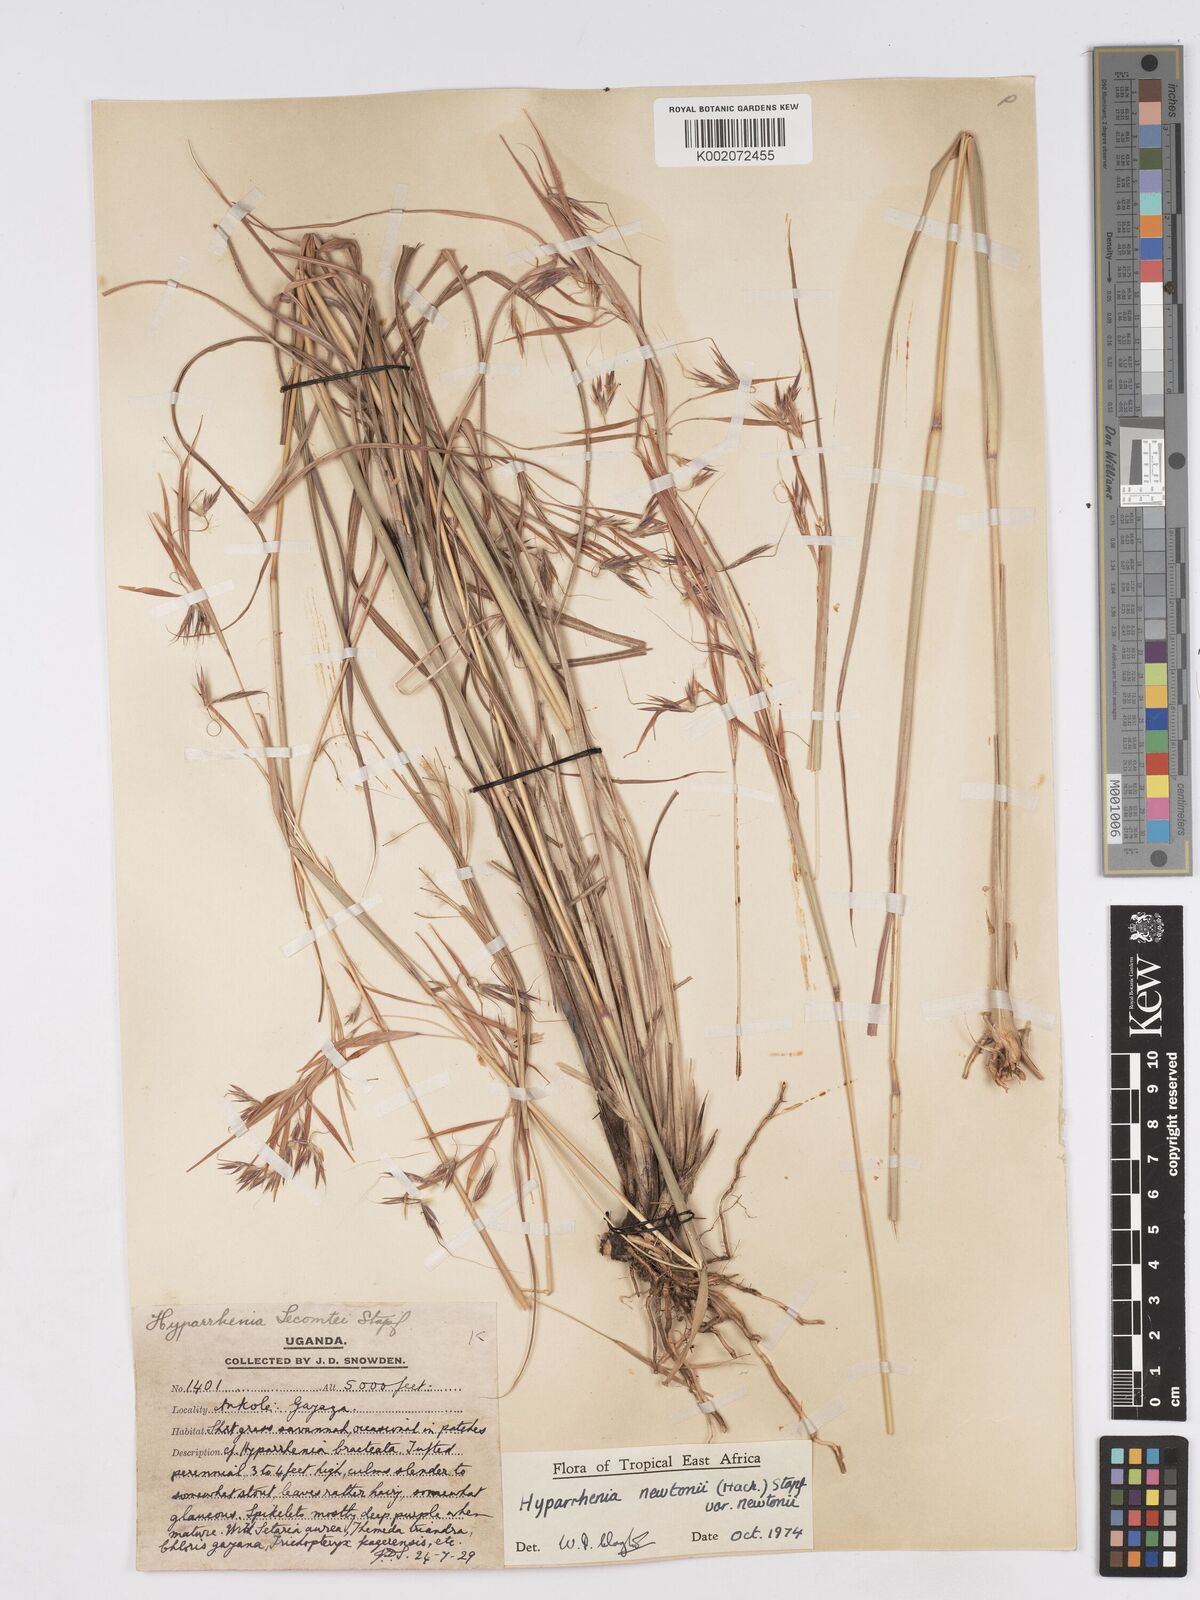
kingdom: Plantae
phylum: Tracheophyta
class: Liliopsida
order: Poales
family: Poaceae
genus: Hyparrhenia
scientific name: Hyparrhenia newtonii
